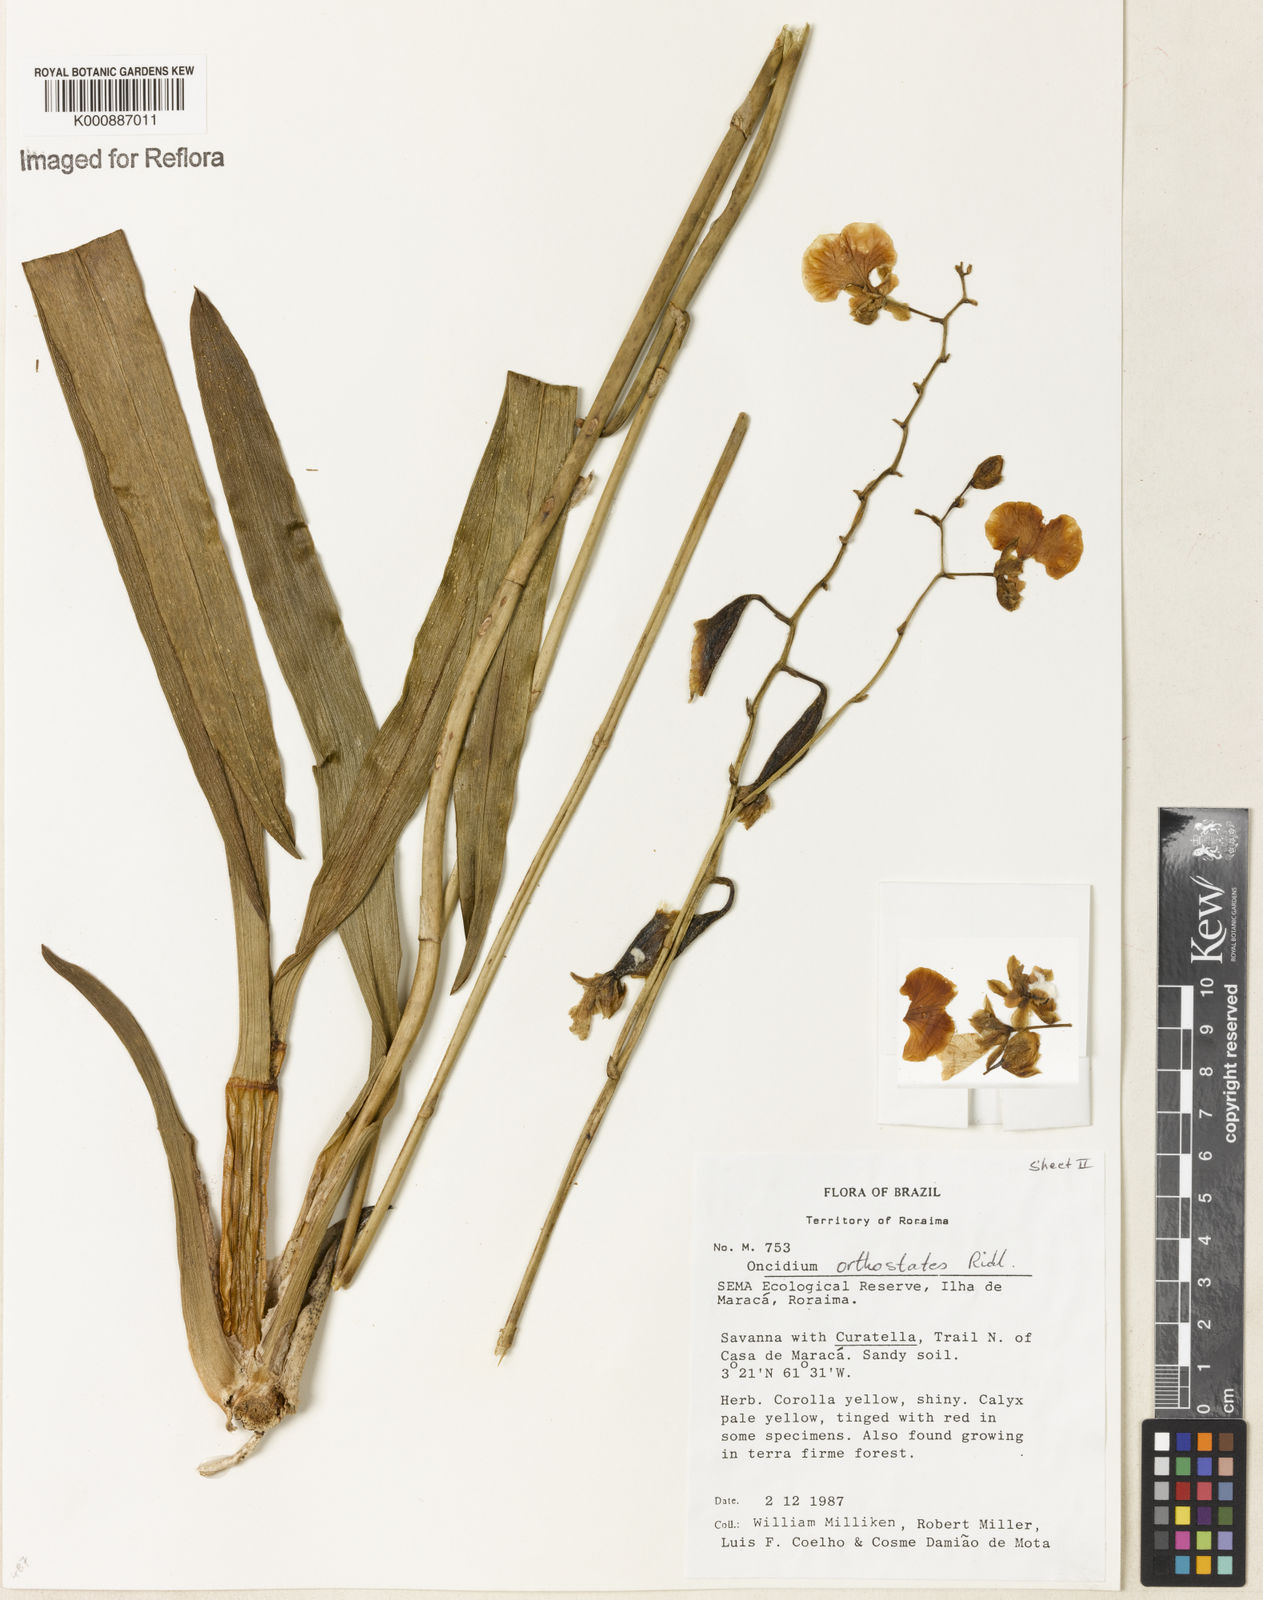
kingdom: Plantae
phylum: Tracheophyta
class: Liliopsida
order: Asparagales
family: Orchidaceae
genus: Nohawilliamsia
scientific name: Nohawilliamsia pirarensis
